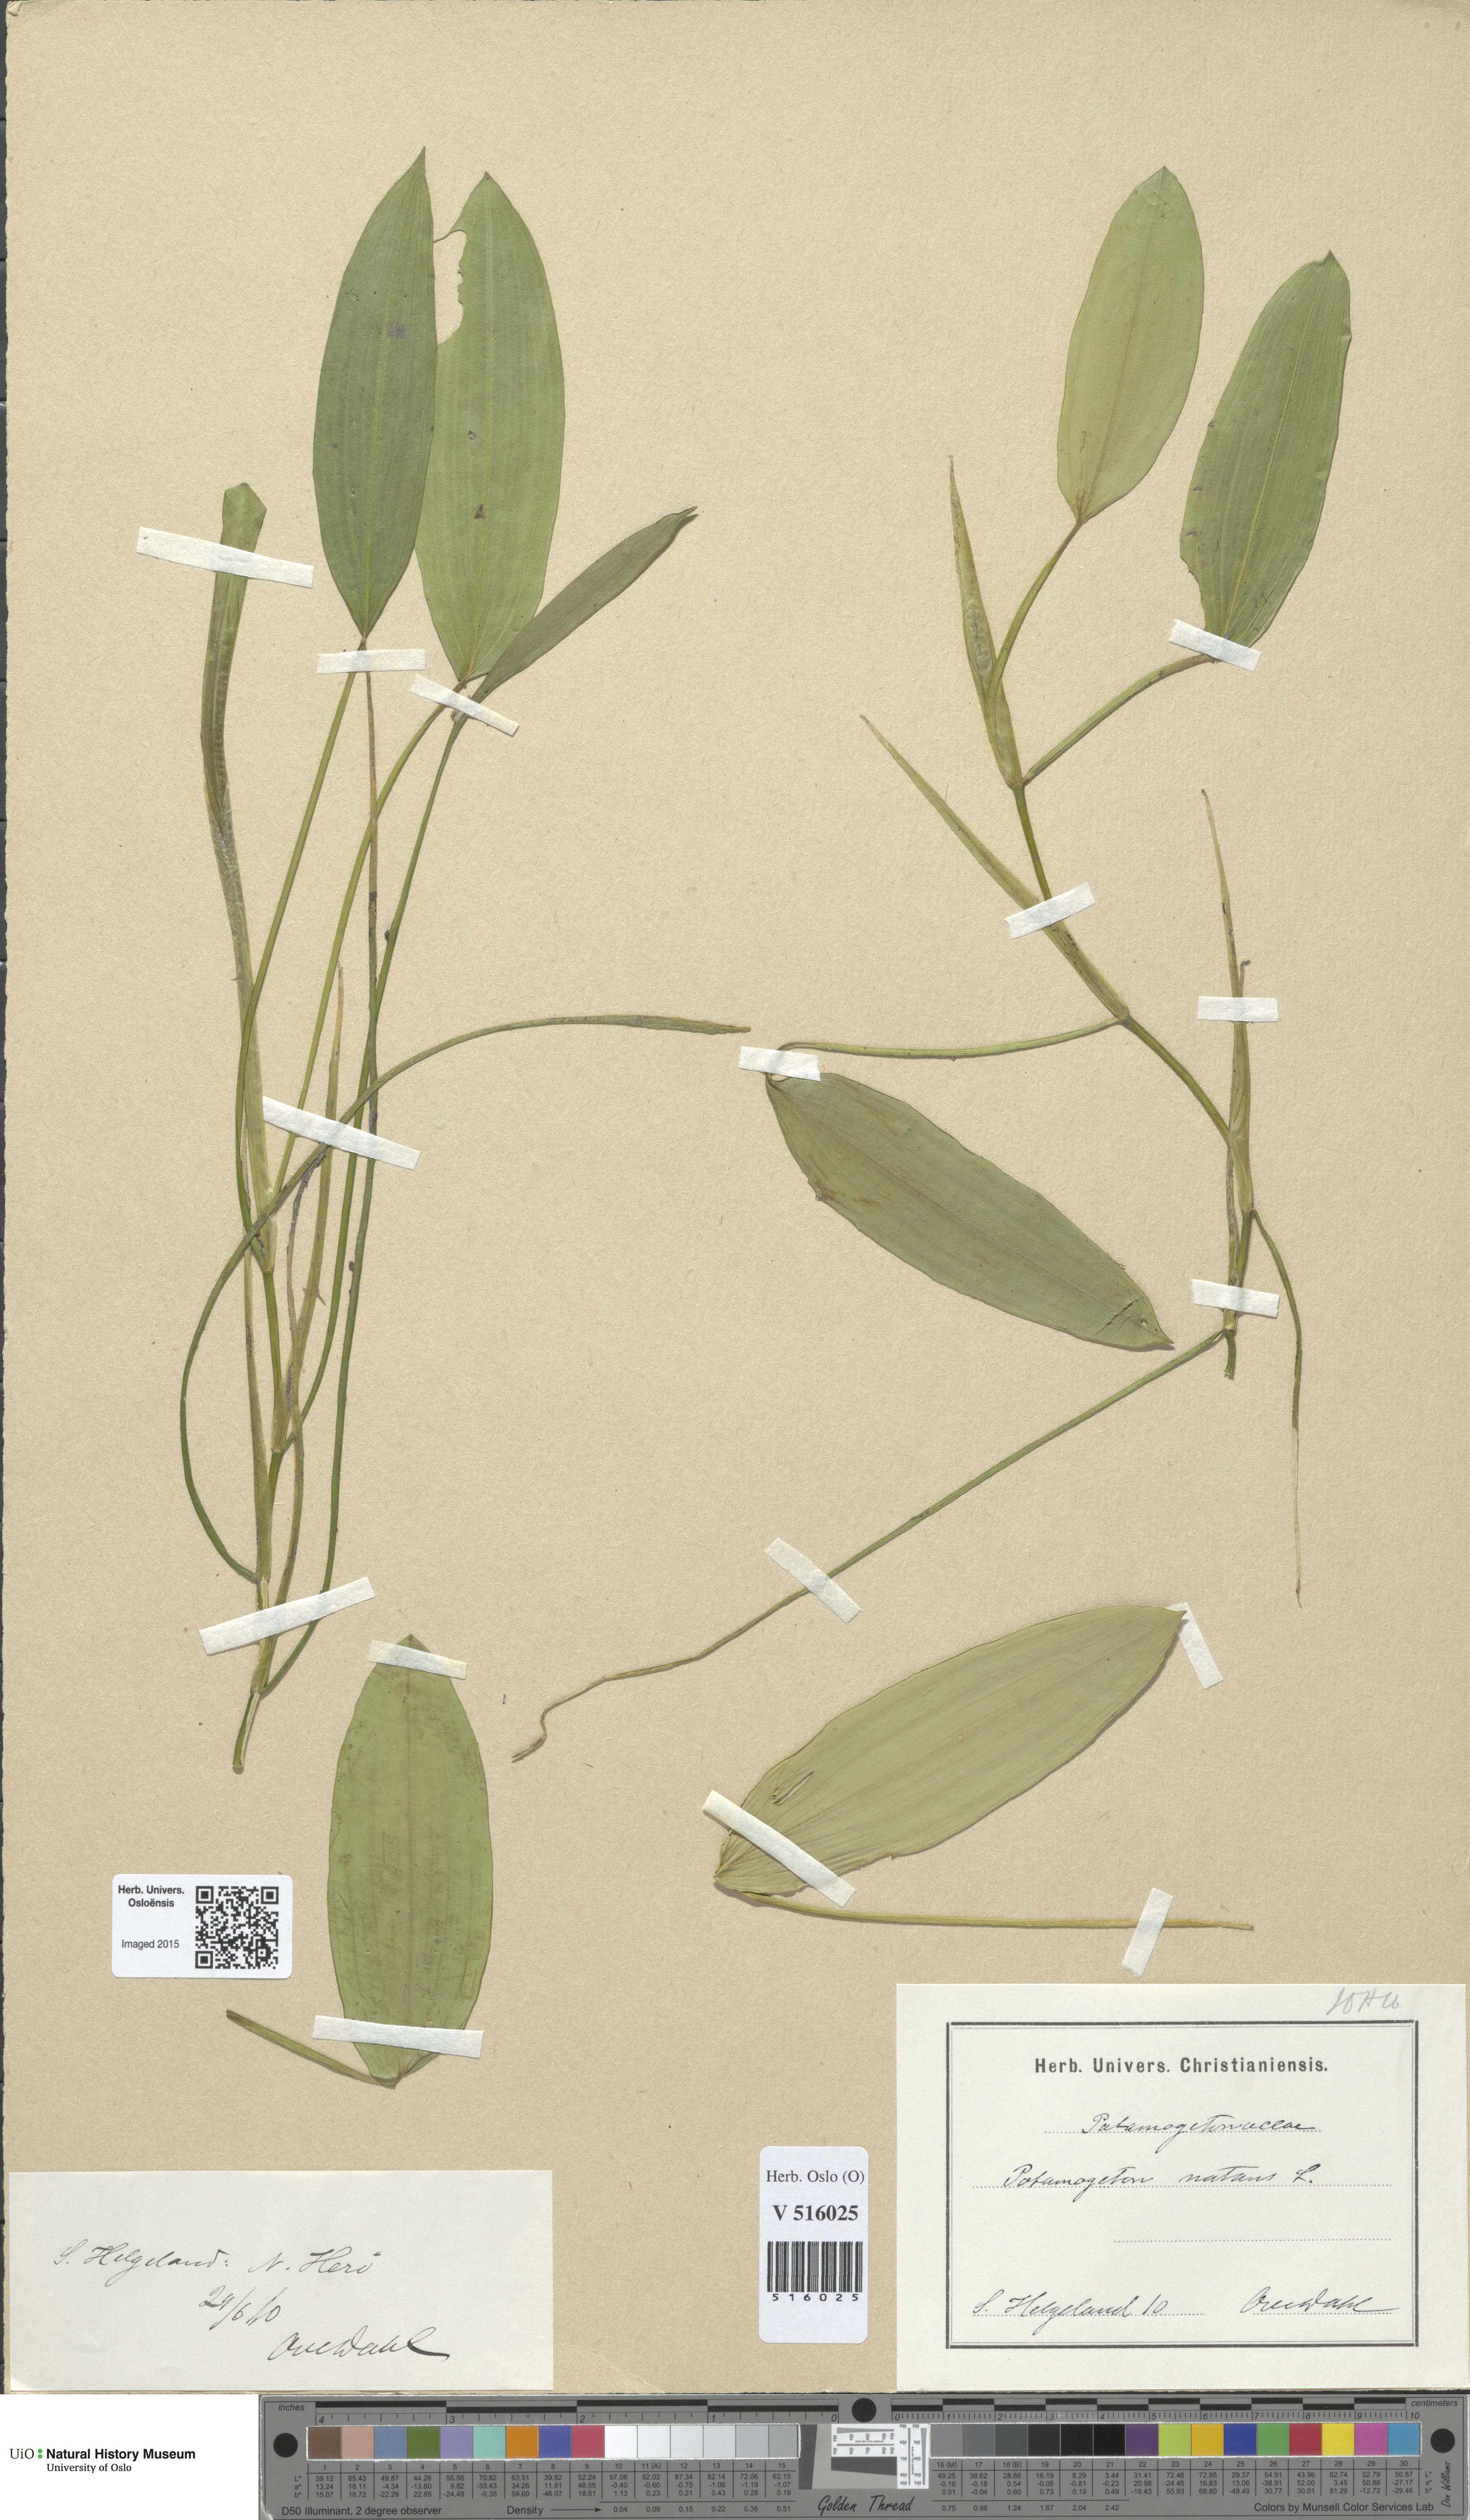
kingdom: Plantae
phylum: Tracheophyta
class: Liliopsida
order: Alismatales
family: Potamogetonaceae
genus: Potamogeton
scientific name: Potamogeton natans
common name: Broad-leaved pondweed
